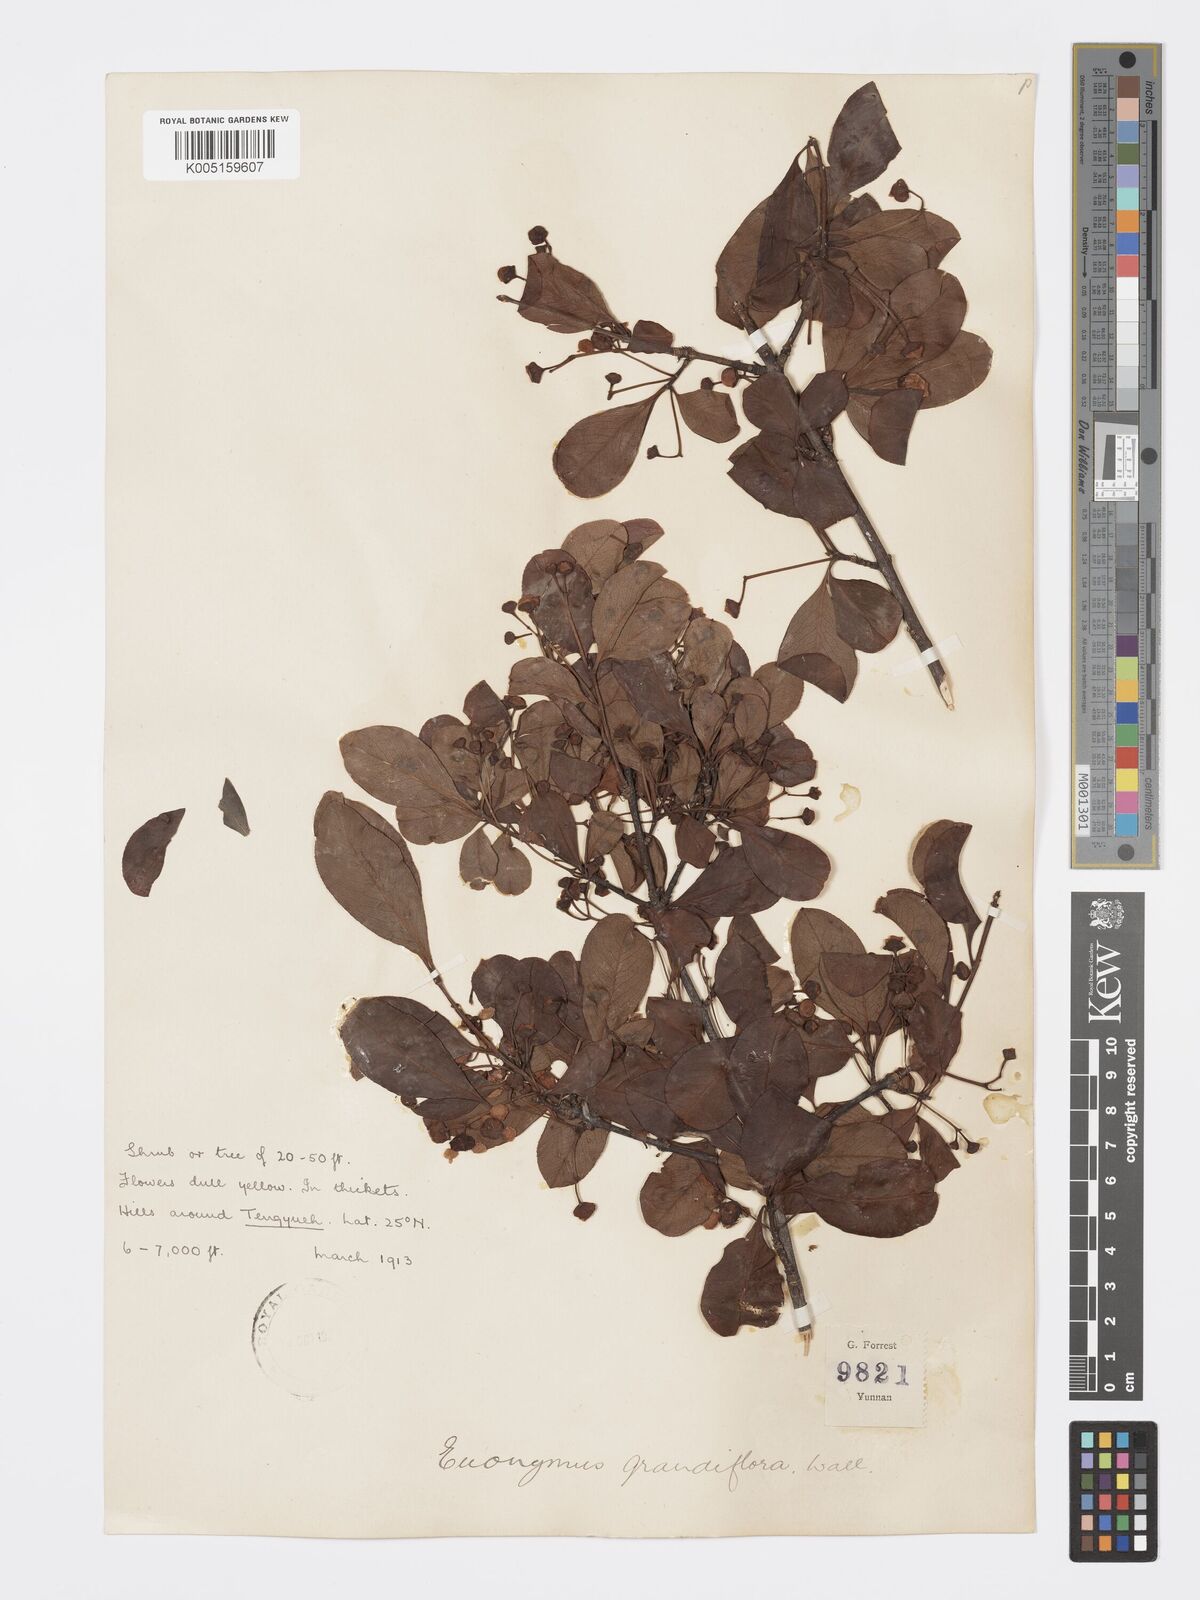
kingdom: Plantae
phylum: Tracheophyta
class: Magnoliopsida
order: Celastrales
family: Celastraceae
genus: Euonymus
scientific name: Euonymus grandiflorus
